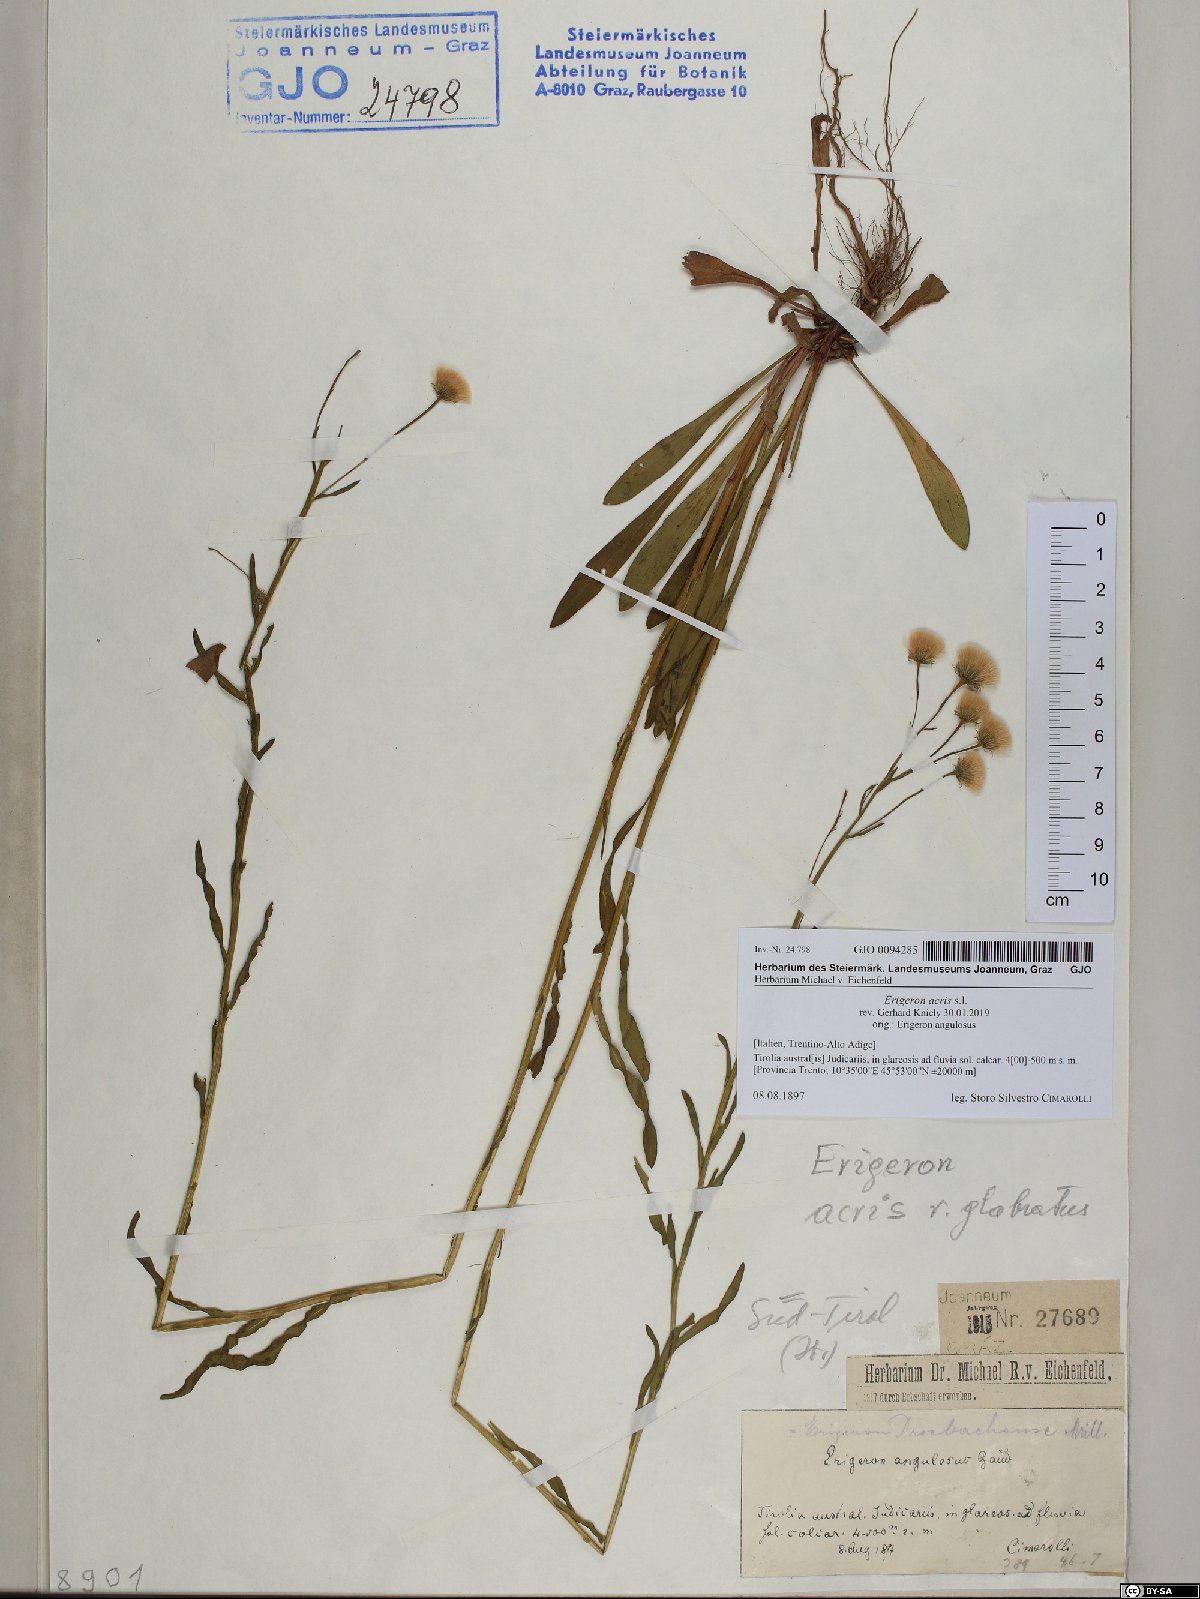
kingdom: Plantae
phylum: Tracheophyta
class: Magnoliopsida
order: Asterales
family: Asteraceae
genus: Erigeron
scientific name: Erigeron acris
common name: Blue fleabane
